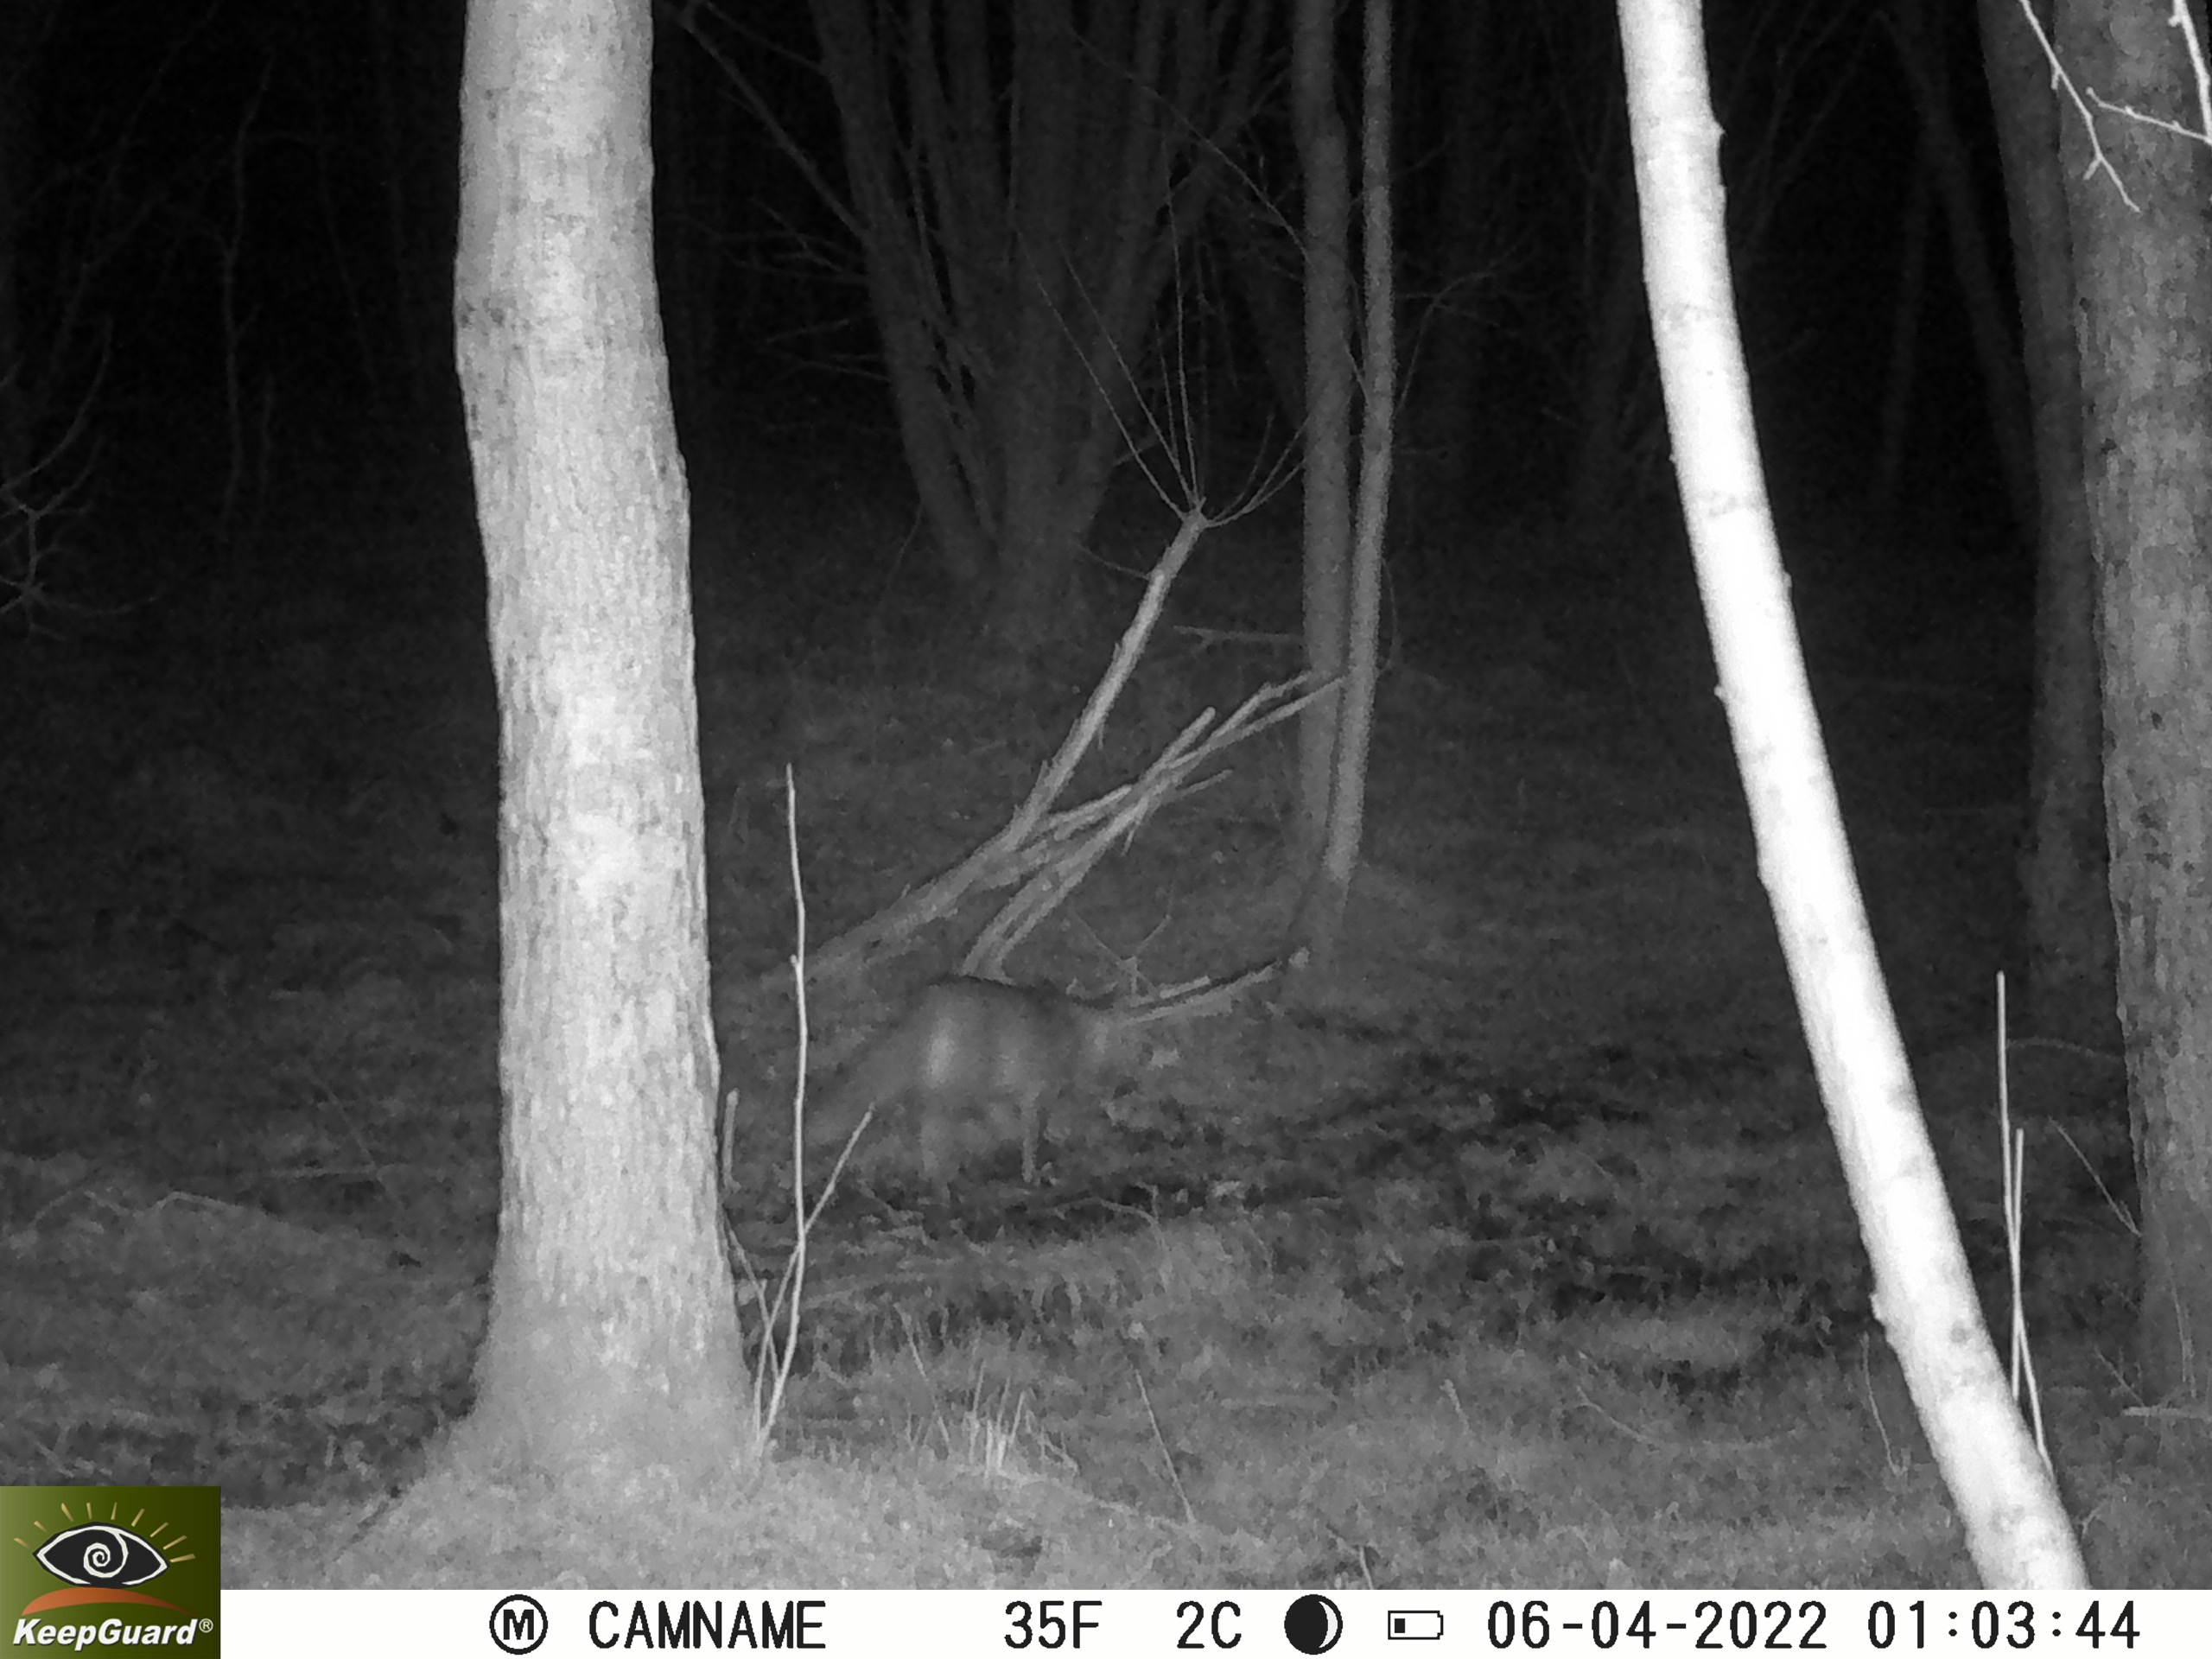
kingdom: Animalia
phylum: Chordata
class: Mammalia
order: Carnivora
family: Canidae
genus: Vulpes
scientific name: Vulpes vulpes
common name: Ræv
